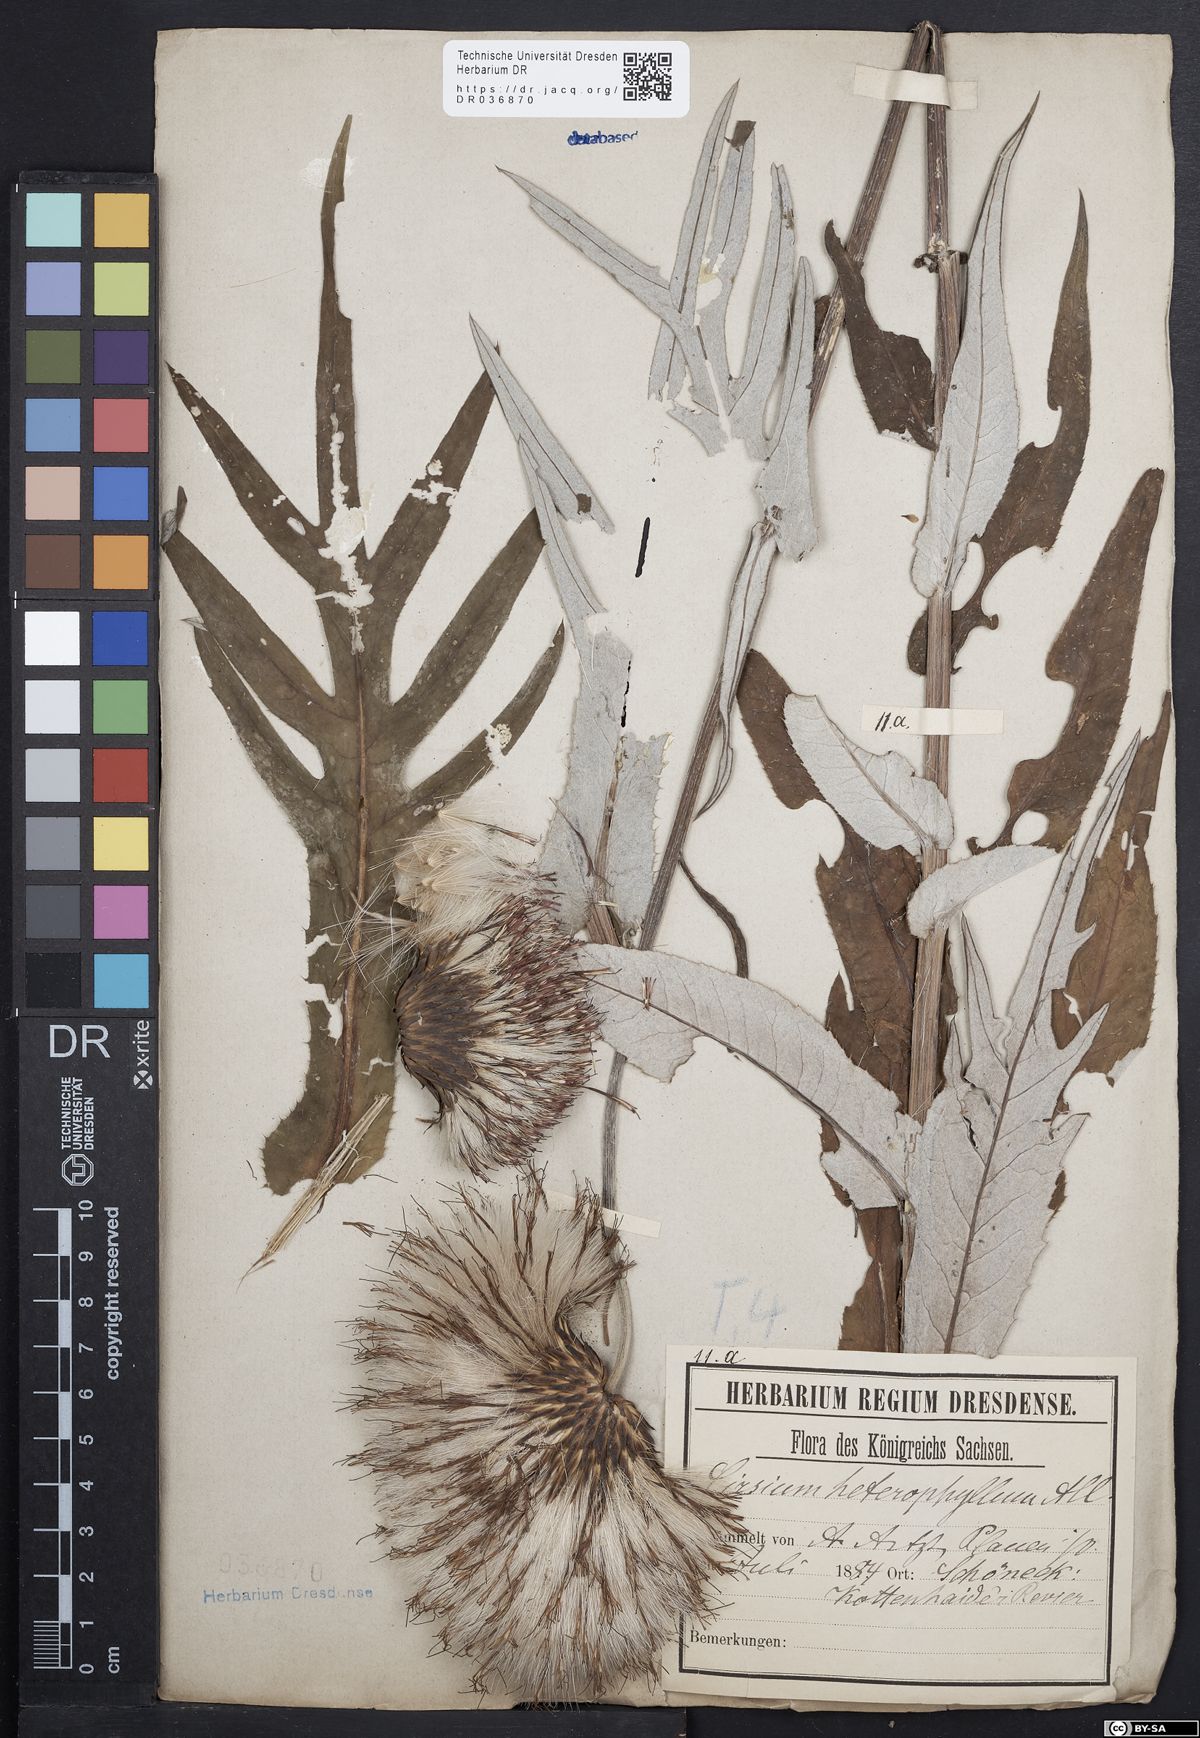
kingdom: Plantae
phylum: Tracheophyta
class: Magnoliopsida
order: Asterales
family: Asteraceae
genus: Cirsium
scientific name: Cirsium helenioides
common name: Melancholy thistle
